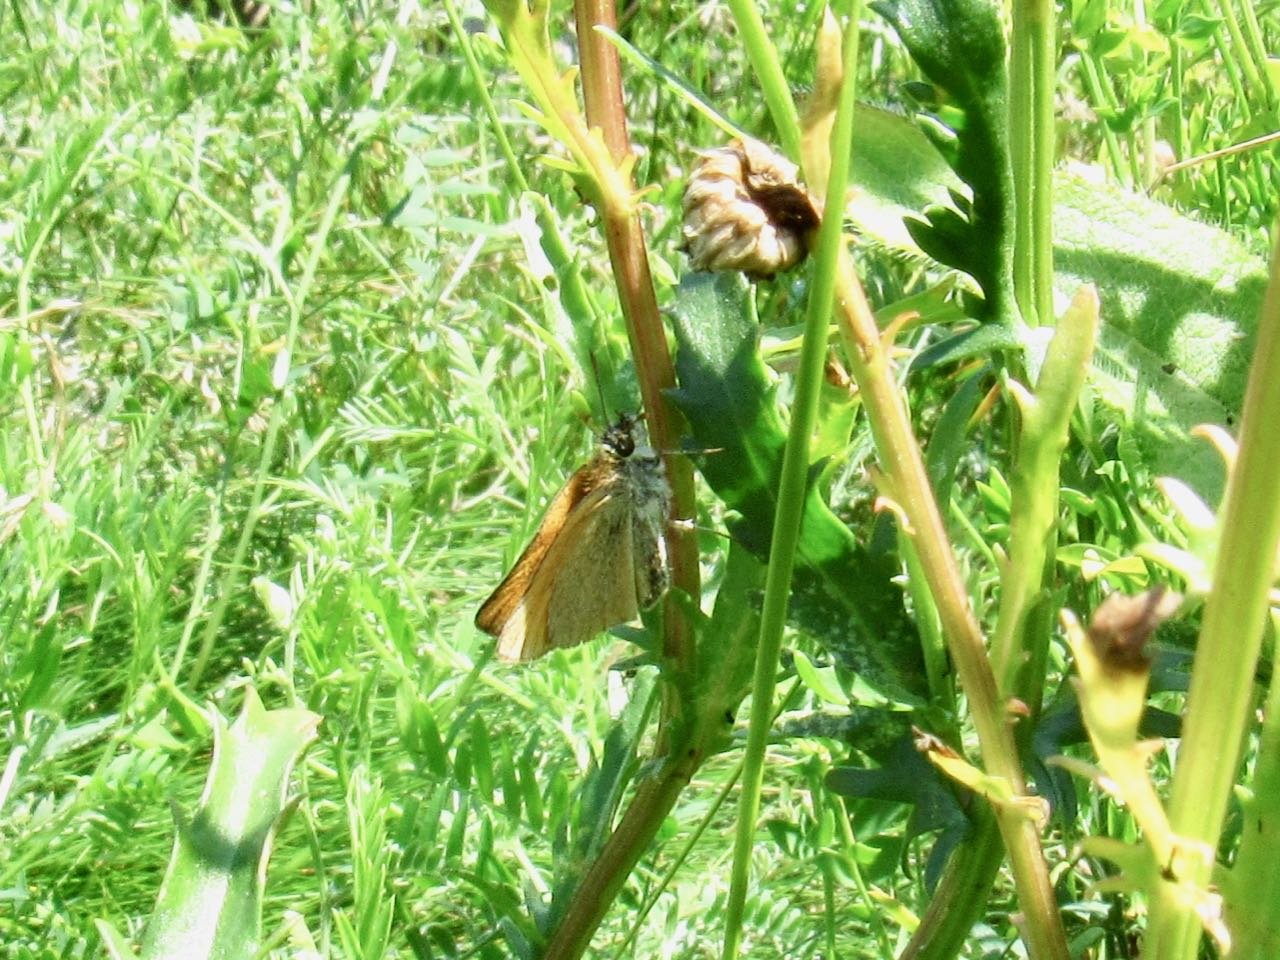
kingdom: Animalia
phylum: Arthropoda
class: Insecta
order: Lepidoptera
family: Hesperiidae
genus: Thymelicus
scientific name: Thymelicus lineola
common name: European Skipper
